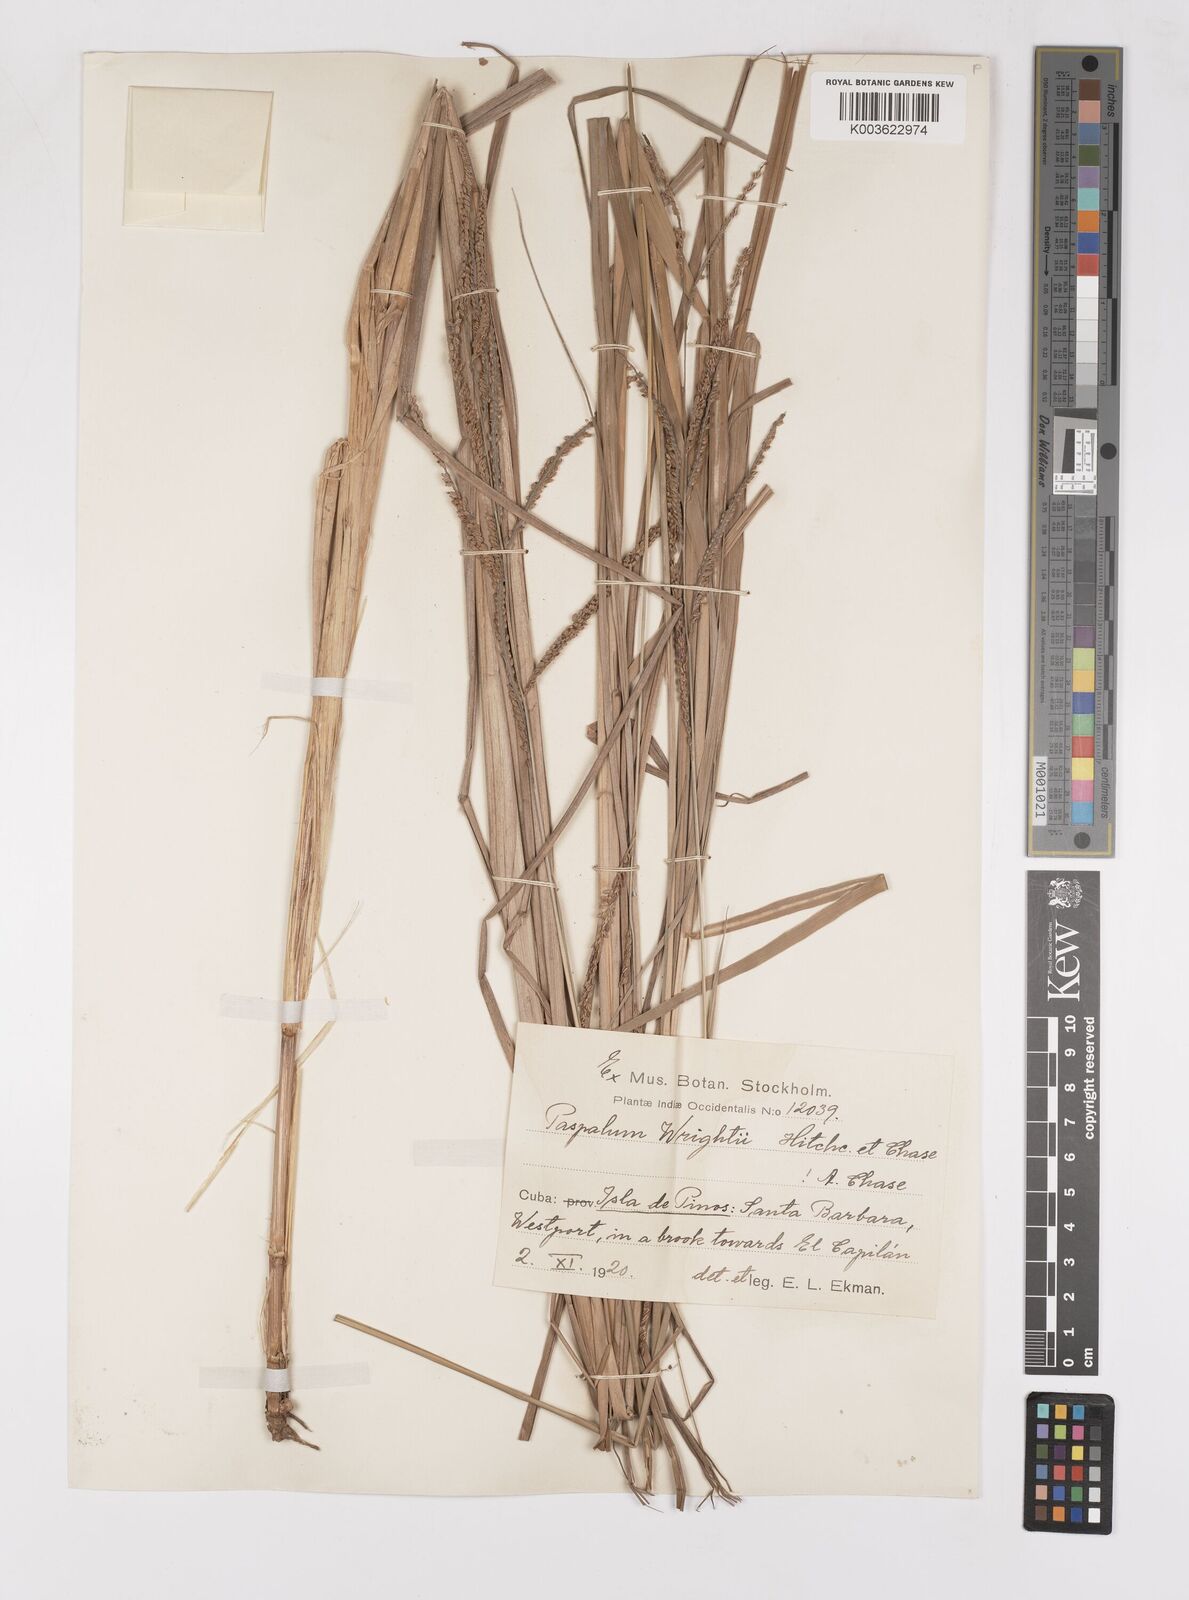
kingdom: Plantae
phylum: Tracheophyta
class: Liliopsida
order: Poales
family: Poaceae
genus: Paspalum
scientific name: Paspalum wrightii
